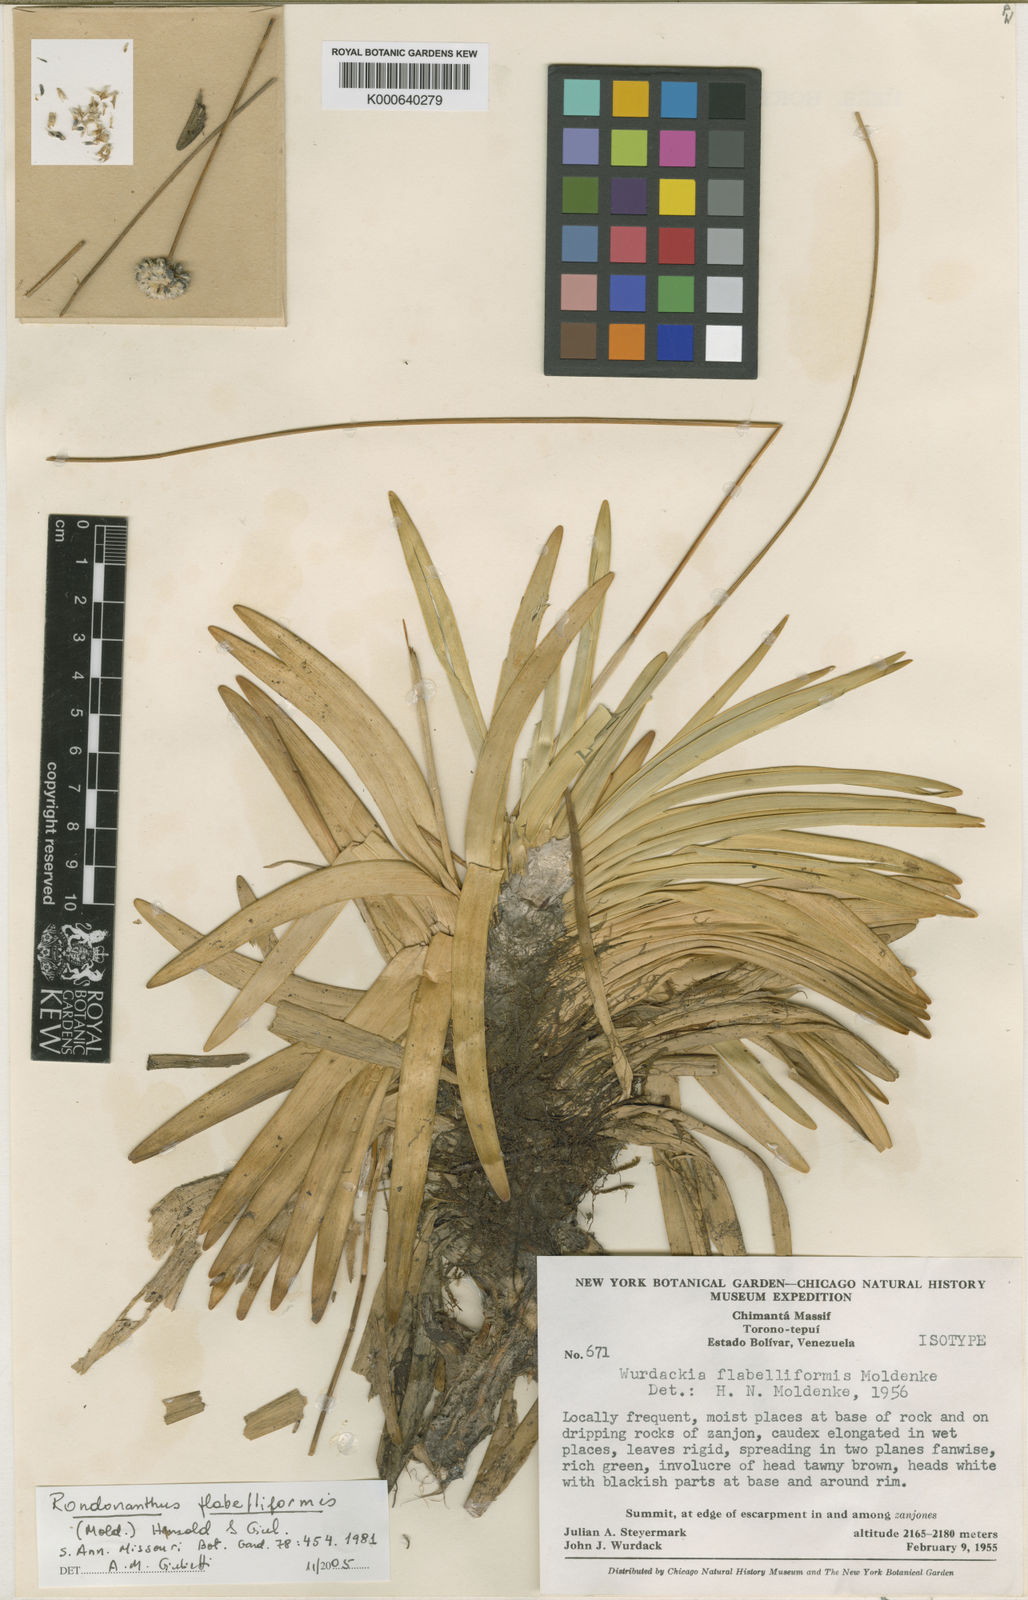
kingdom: Plantae
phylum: Tracheophyta
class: Liliopsida
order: Poales
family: Eriocaulaceae
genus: Rondonanthus
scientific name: Rondonanthus flabelliformis
